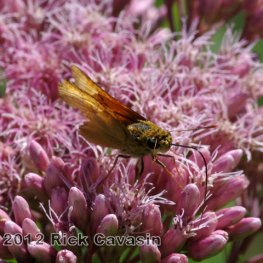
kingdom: Animalia
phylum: Arthropoda
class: Insecta
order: Lepidoptera
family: Hesperiidae
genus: Atrytone
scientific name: Atrytone delaware
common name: Delaware Skipper
